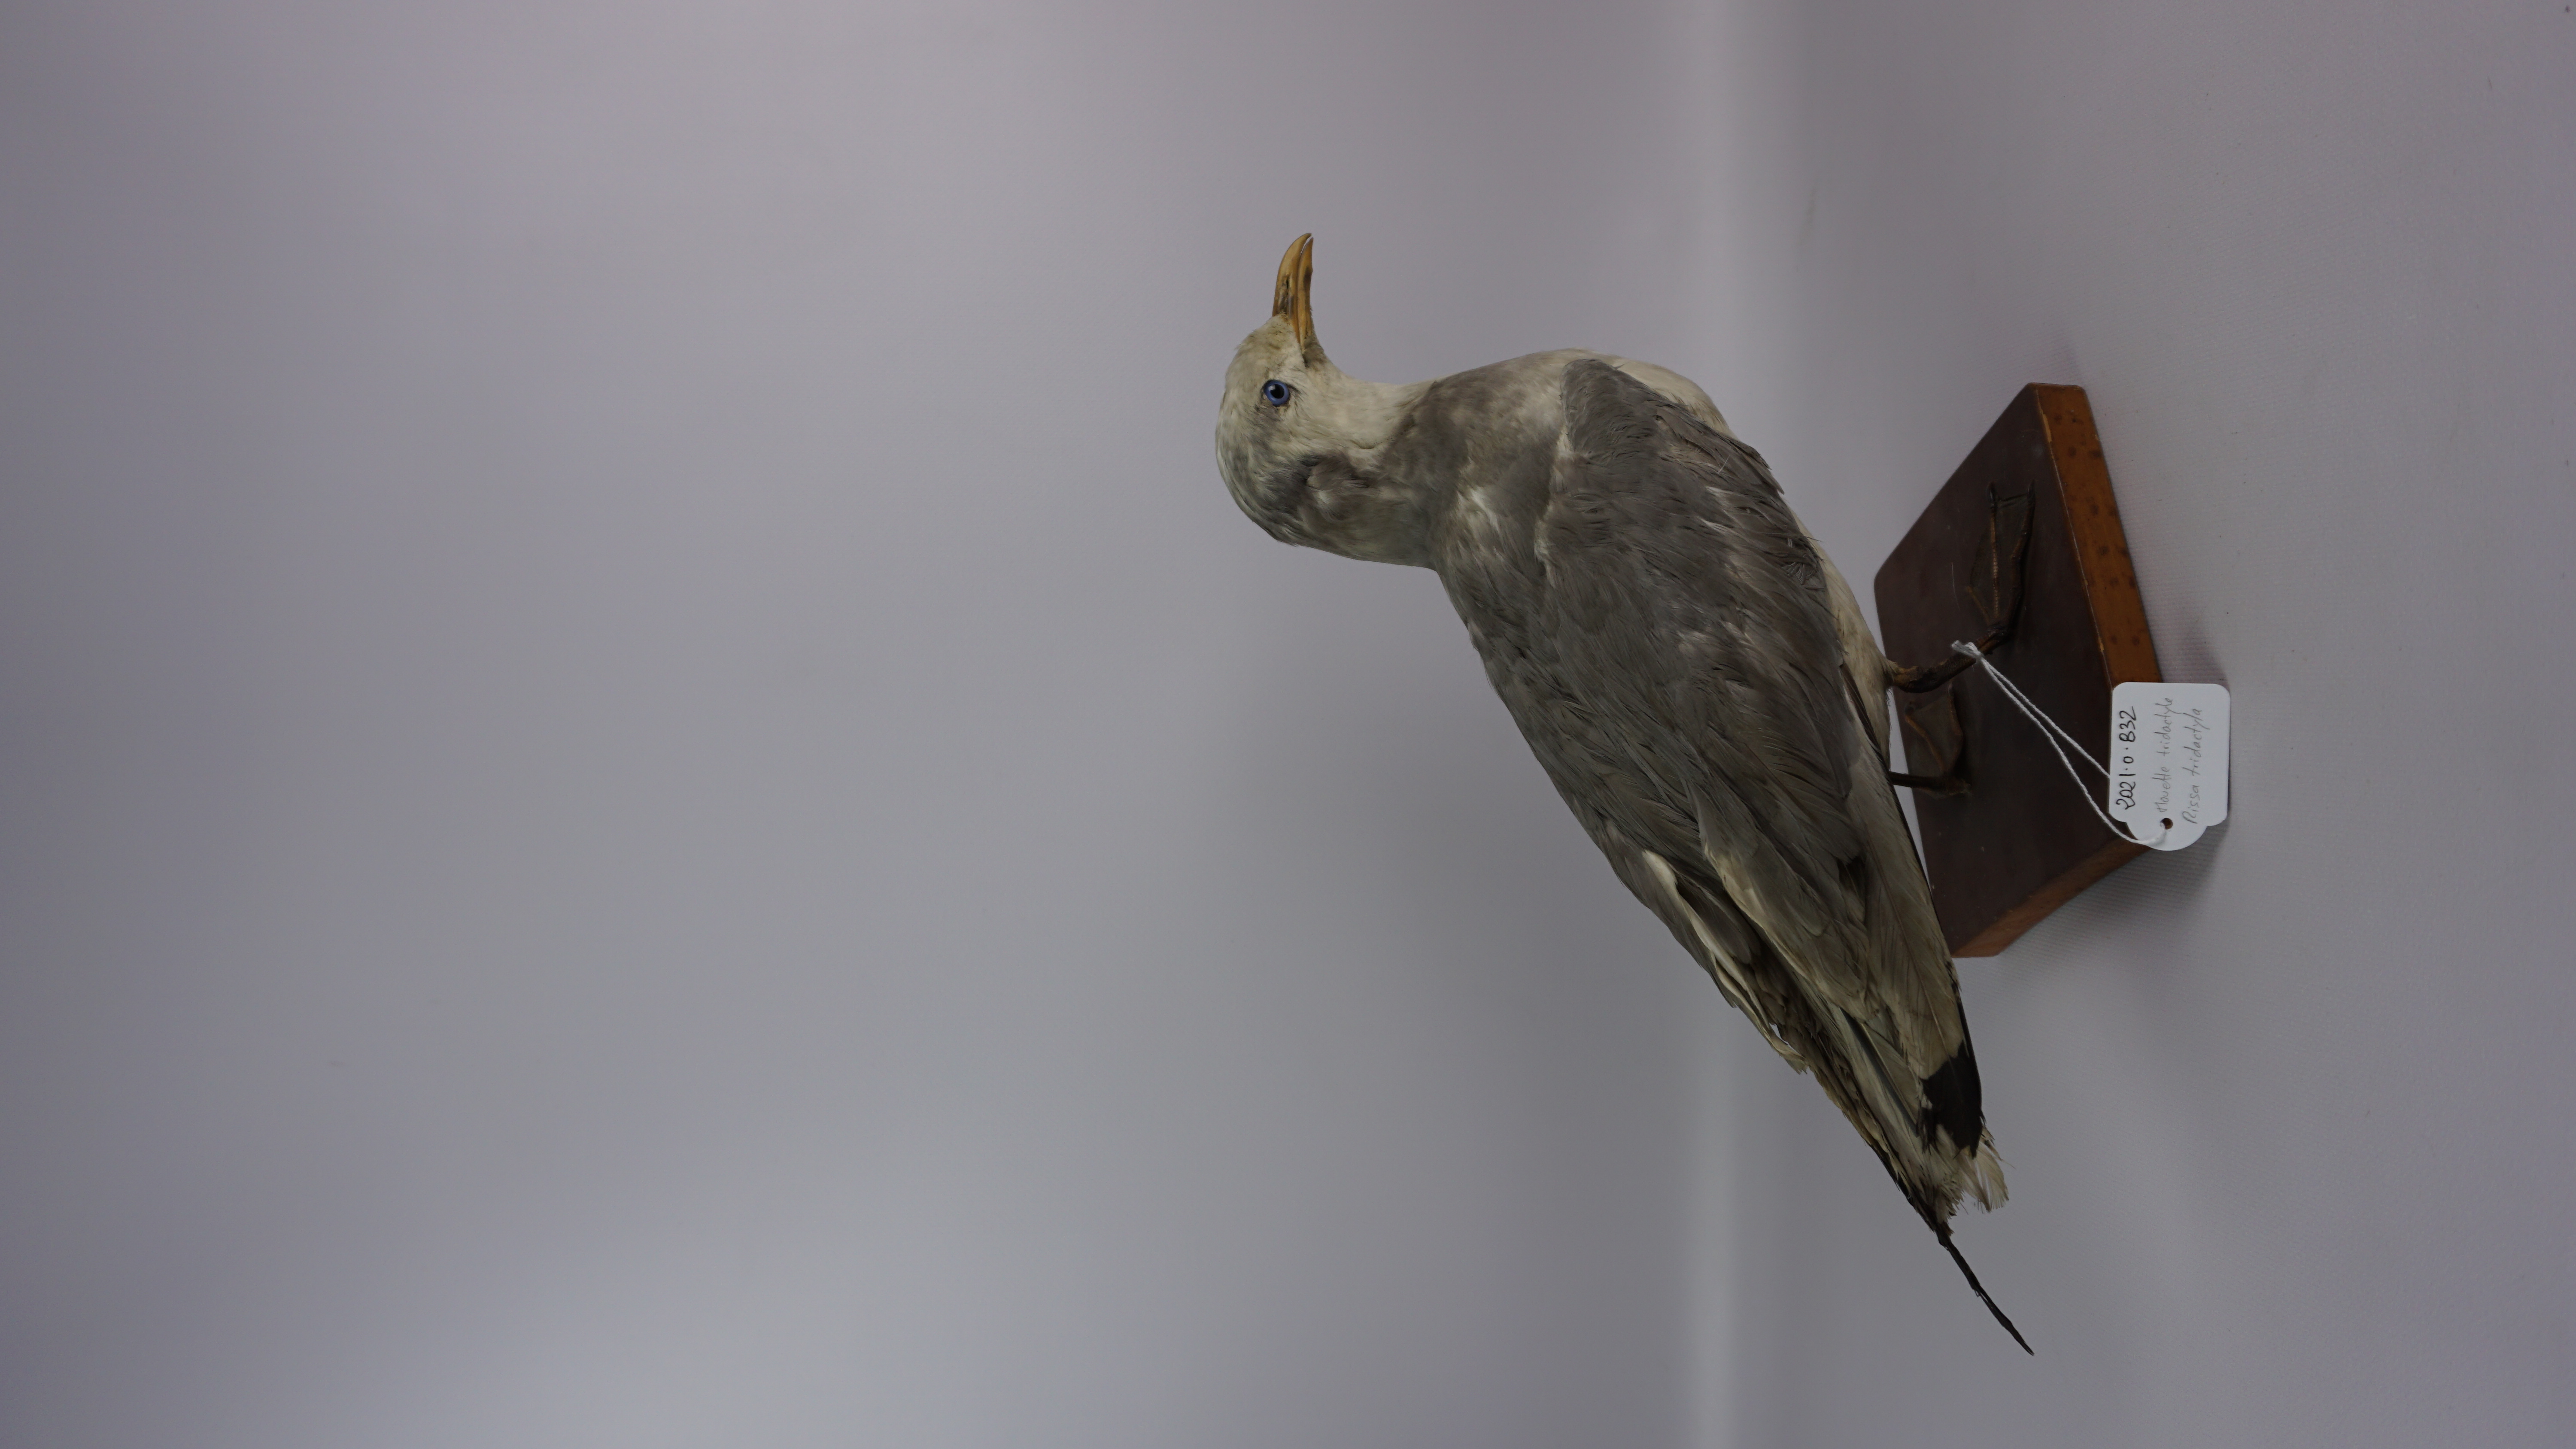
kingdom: Animalia
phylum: Chordata
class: Aves
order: Charadriiformes
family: Laridae
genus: Rissa
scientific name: Rissa tridactyla
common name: Black-legged kittiwake
